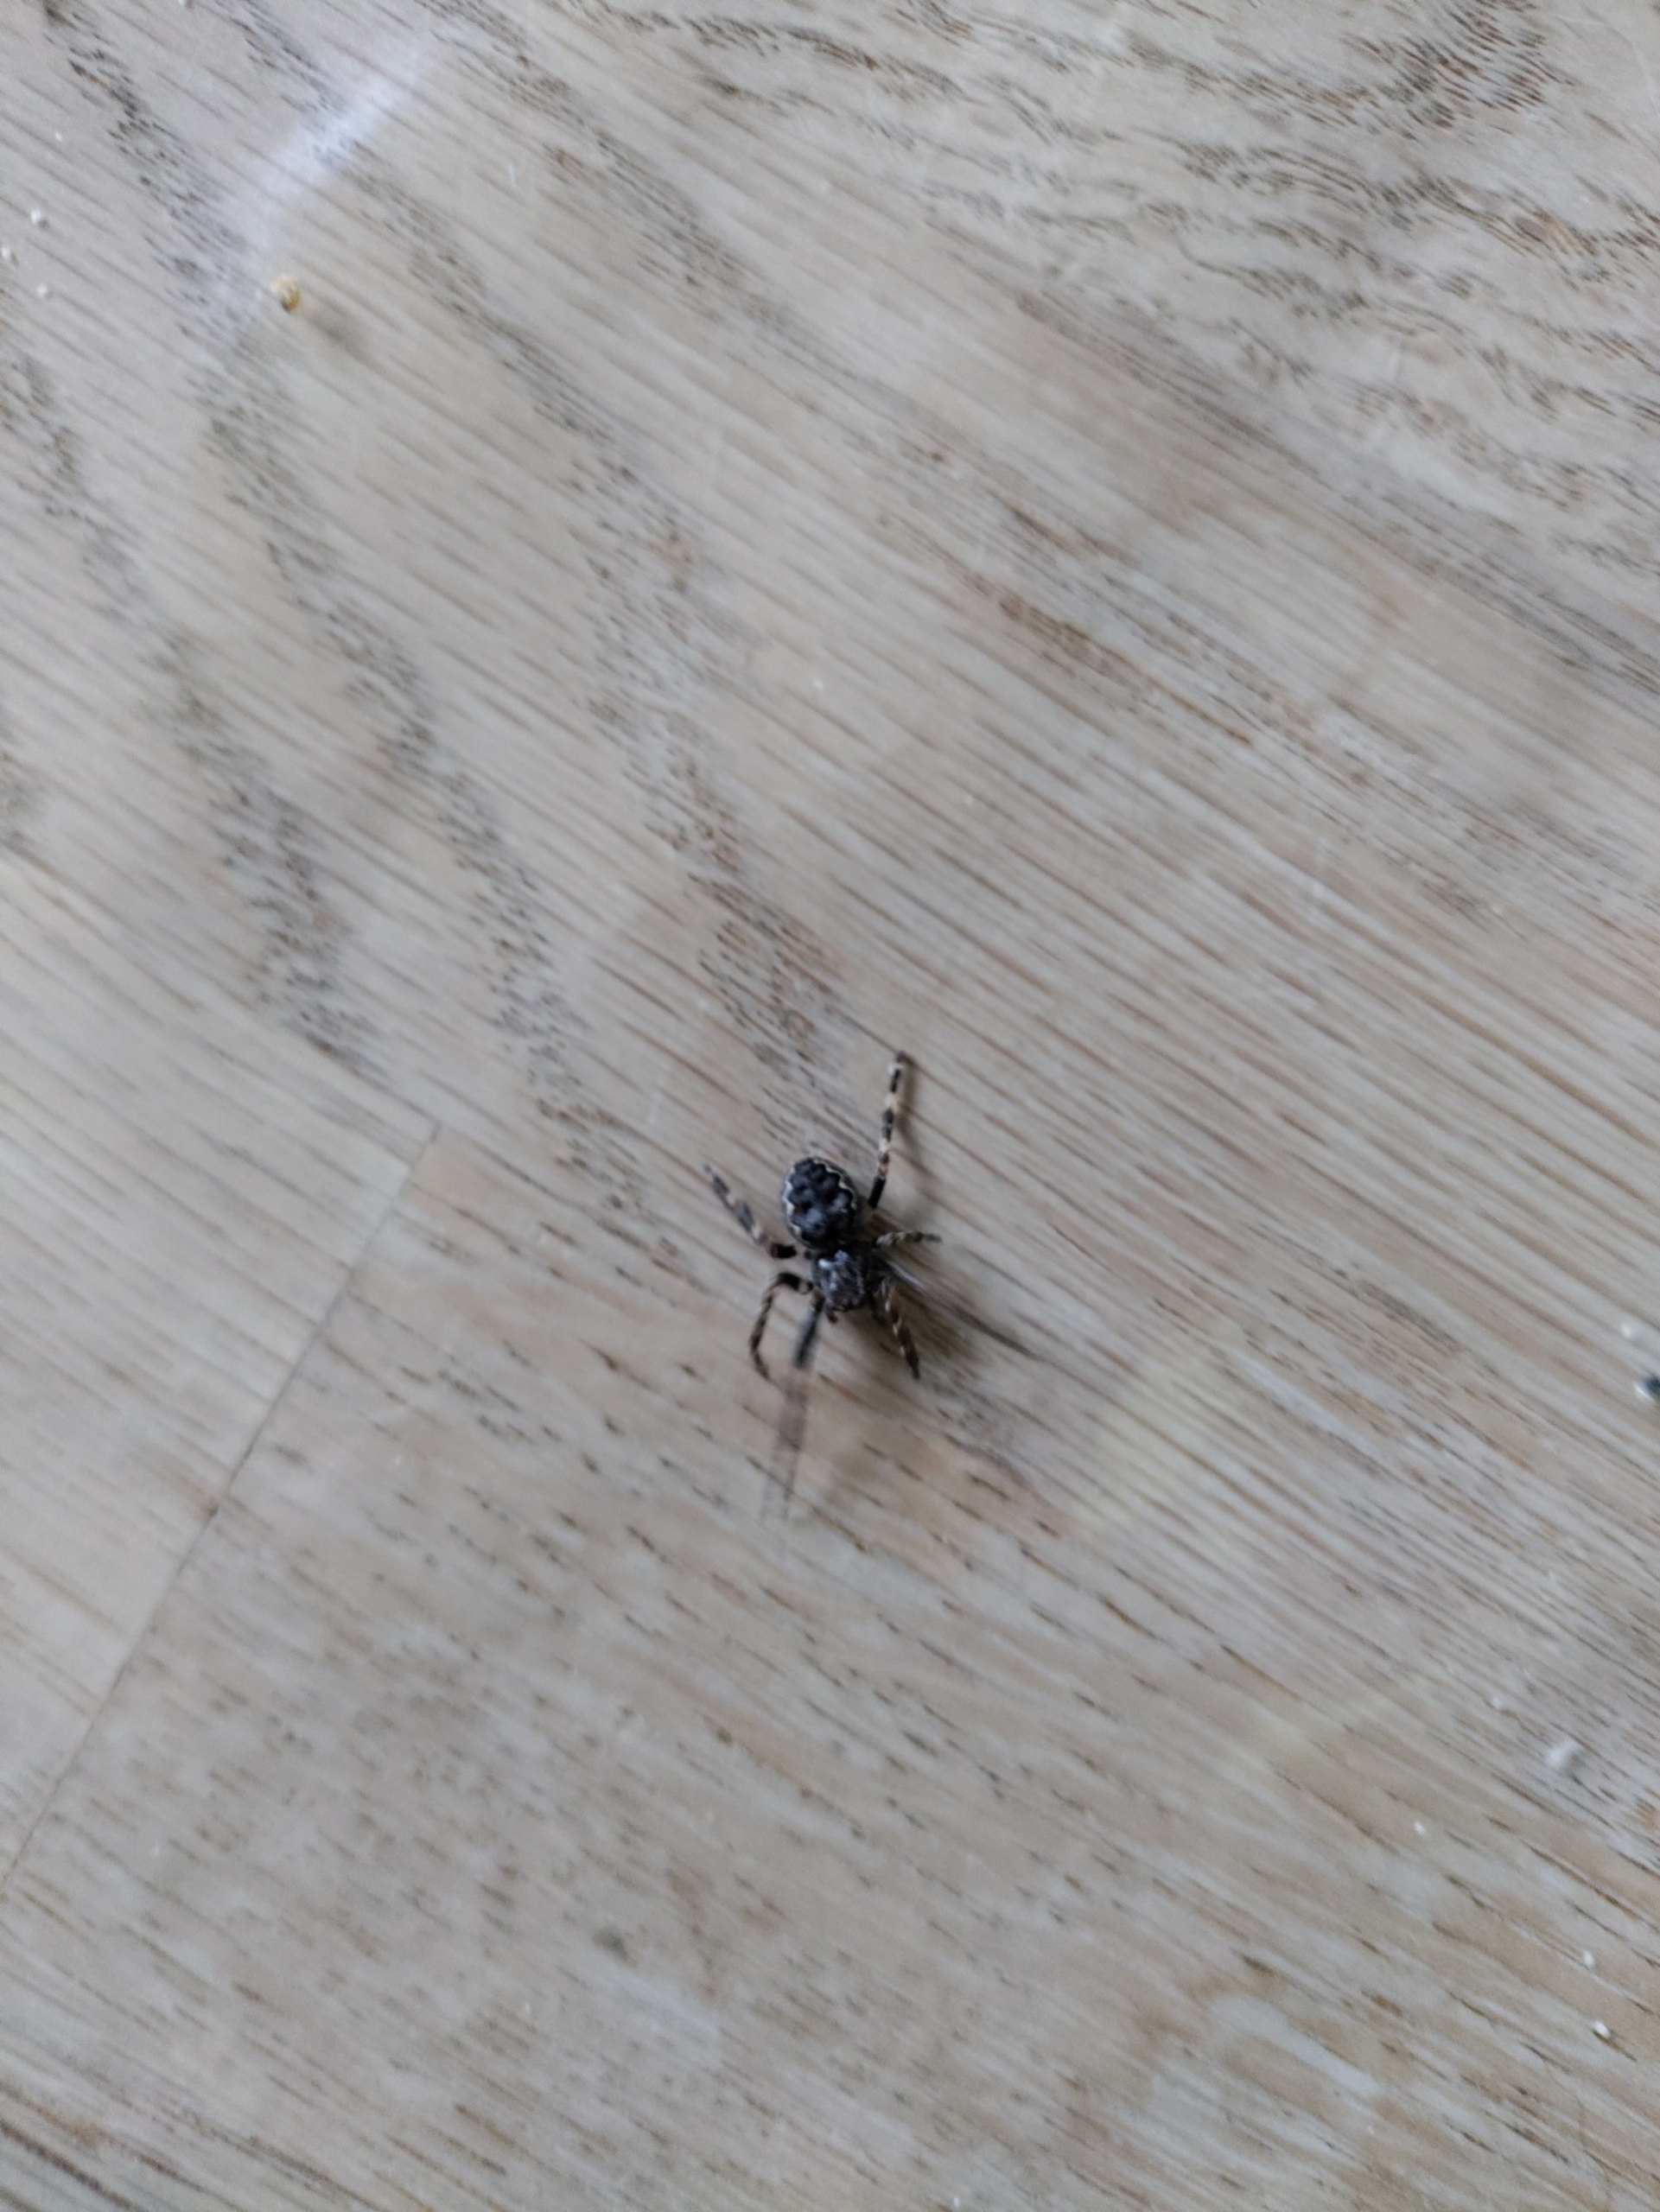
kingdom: Animalia
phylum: Arthropoda
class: Arachnida
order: Araneae
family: Araneidae
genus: Nuctenea
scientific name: Nuctenea umbratica
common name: Flad hjulspinder
